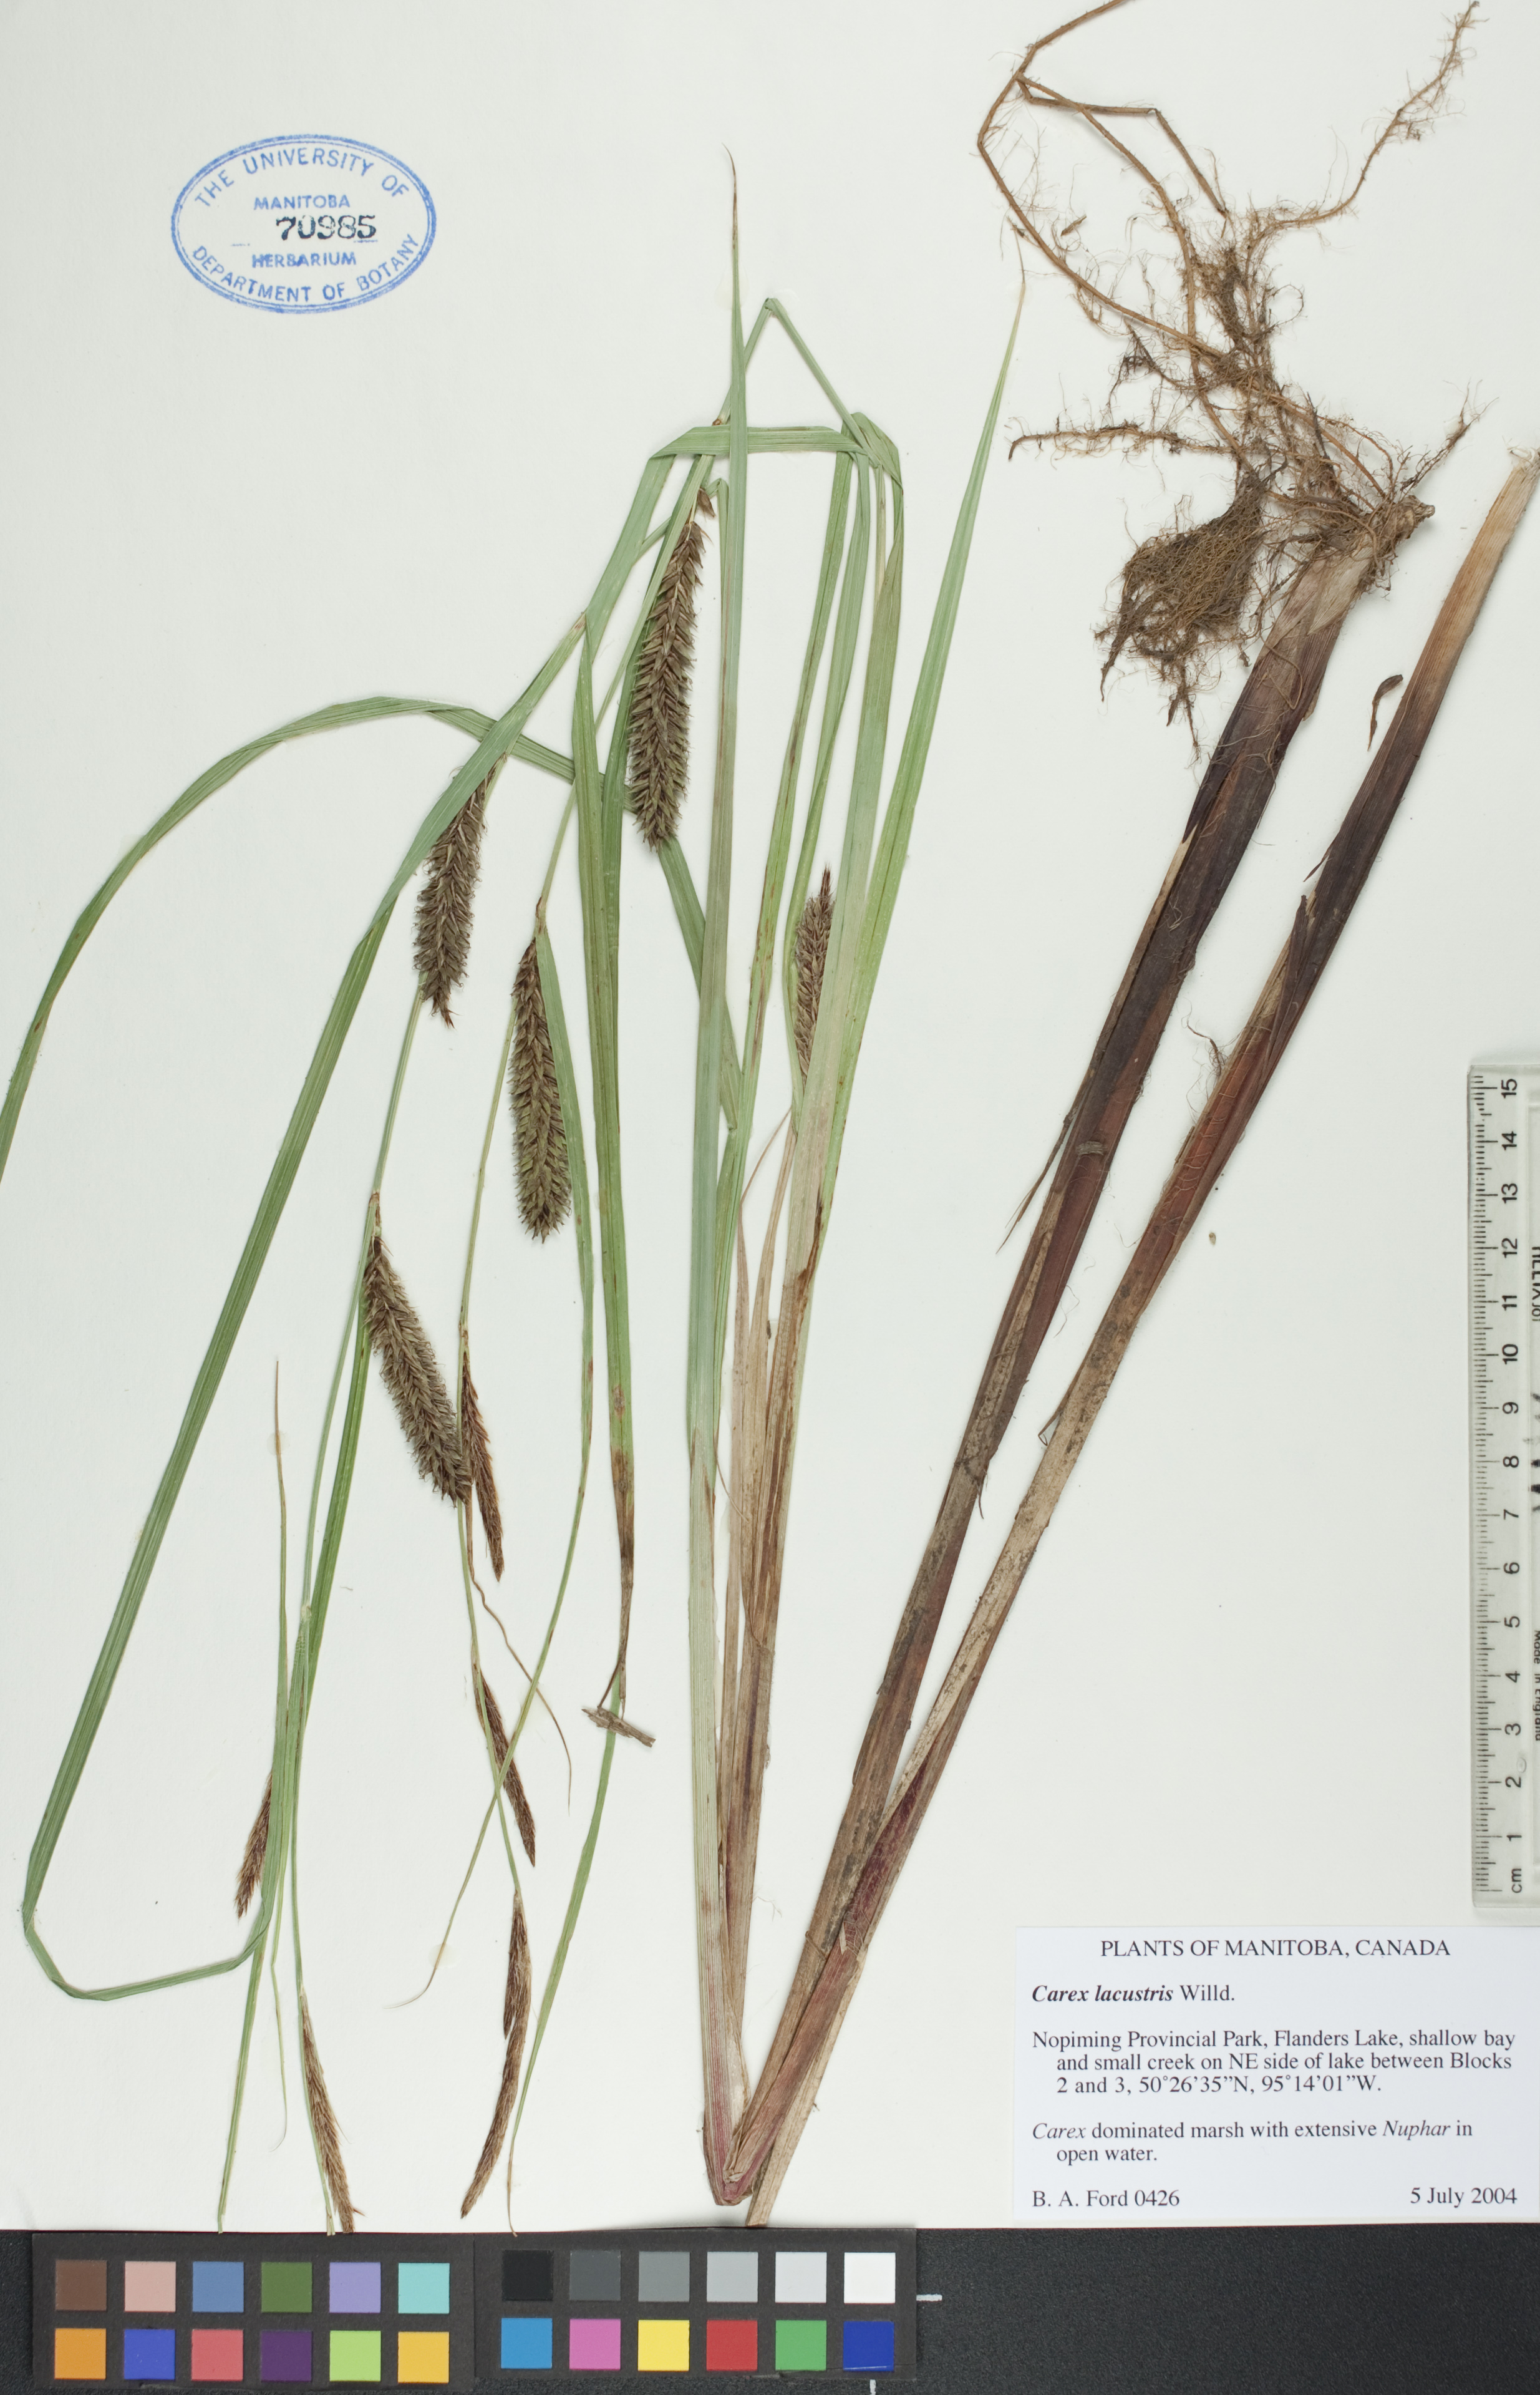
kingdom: Plantae
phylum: Tracheophyta
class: Liliopsida
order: Poales
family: Cyperaceae
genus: Carex
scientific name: Carex lacustris
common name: Common lake sedge
